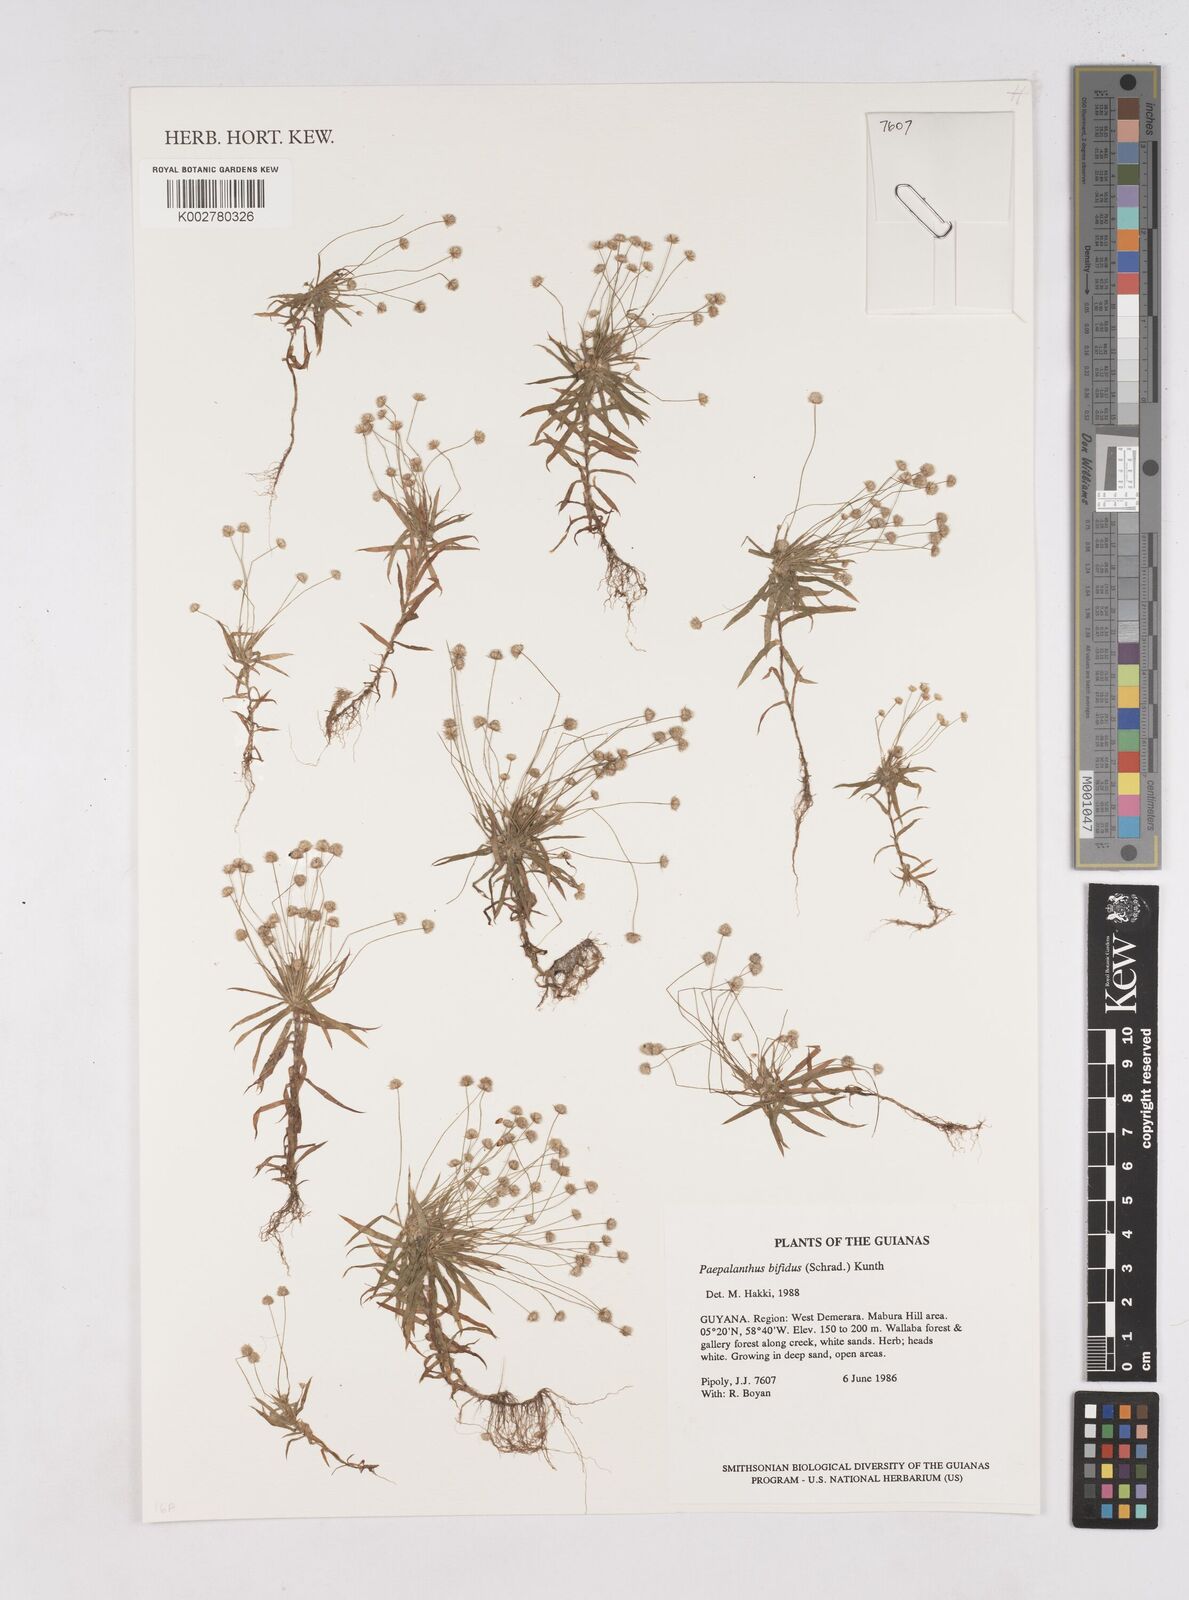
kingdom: Plantae
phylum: Tracheophyta
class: Liliopsida
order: Poales
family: Eriocaulaceae
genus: Paepalanthus
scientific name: Paepalanthus bifidus
